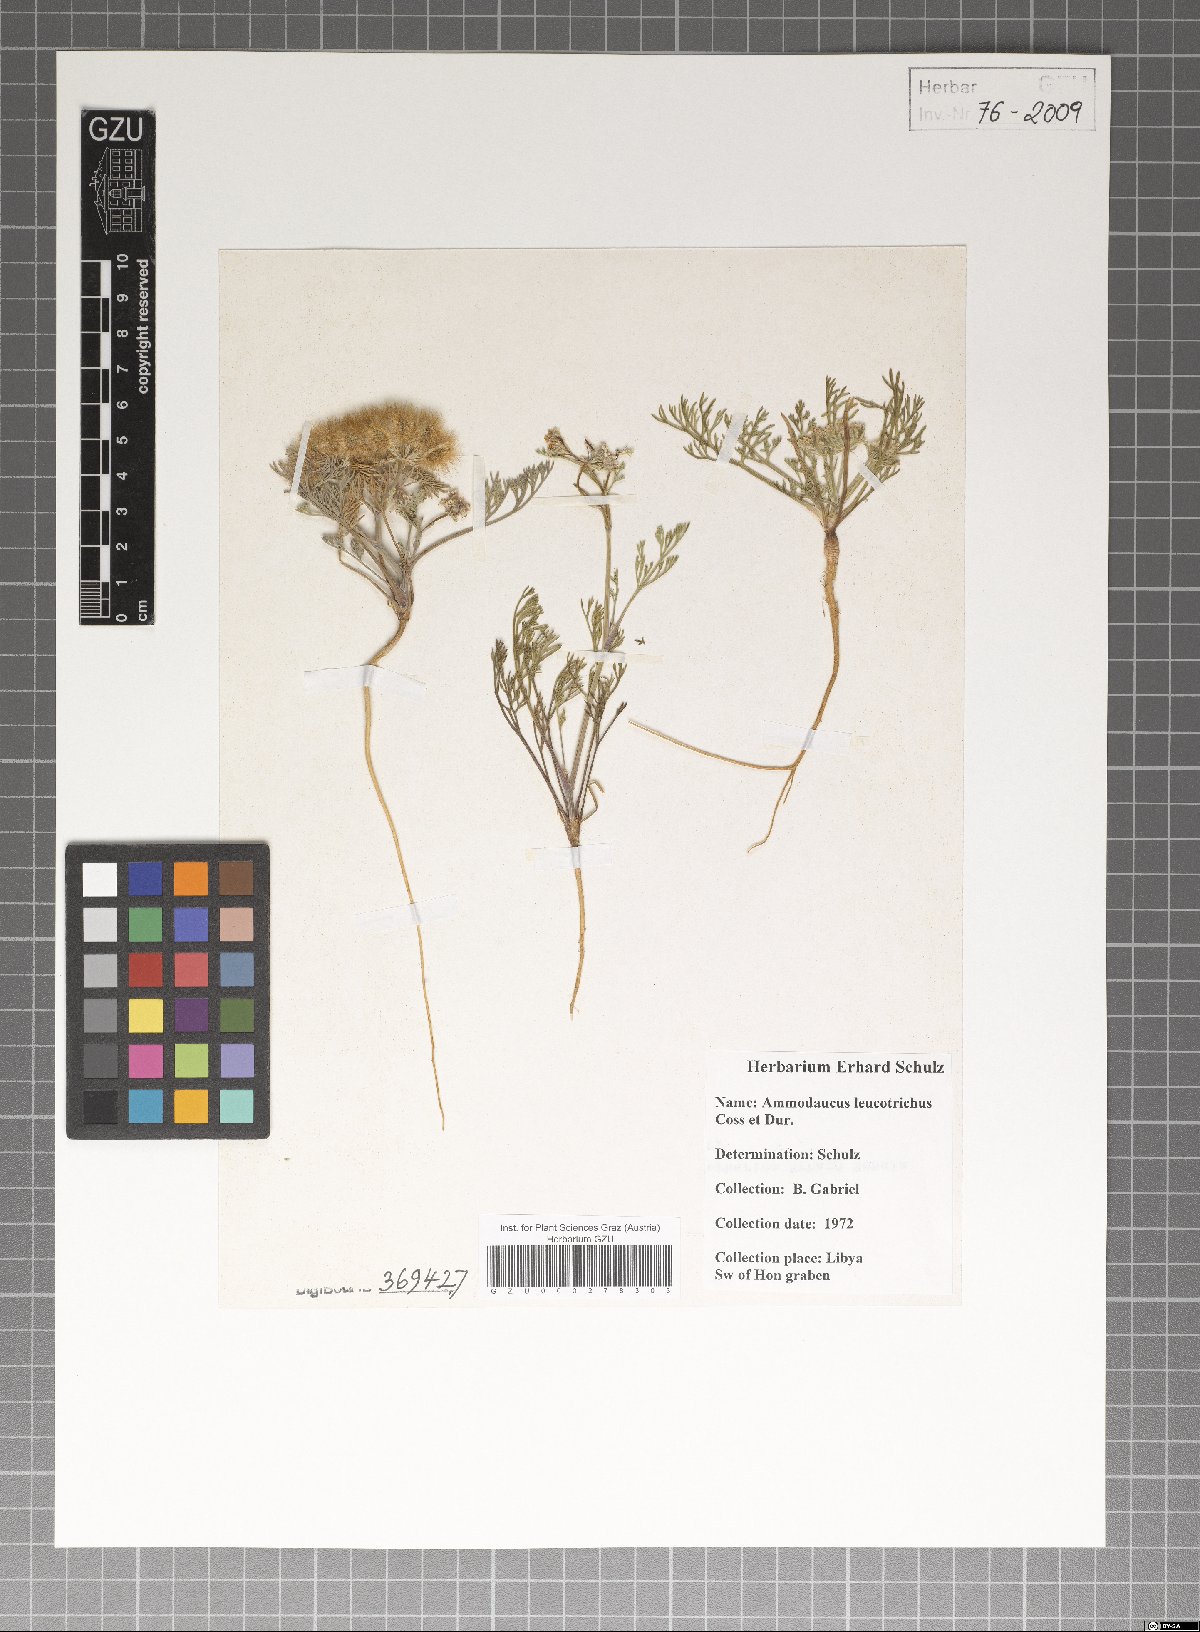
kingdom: Plantae
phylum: Tracheophyta
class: Magnoliopsida
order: Apiales
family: Apiaceae
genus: Ammodaucus
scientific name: Ammodaucus leucotrichus
